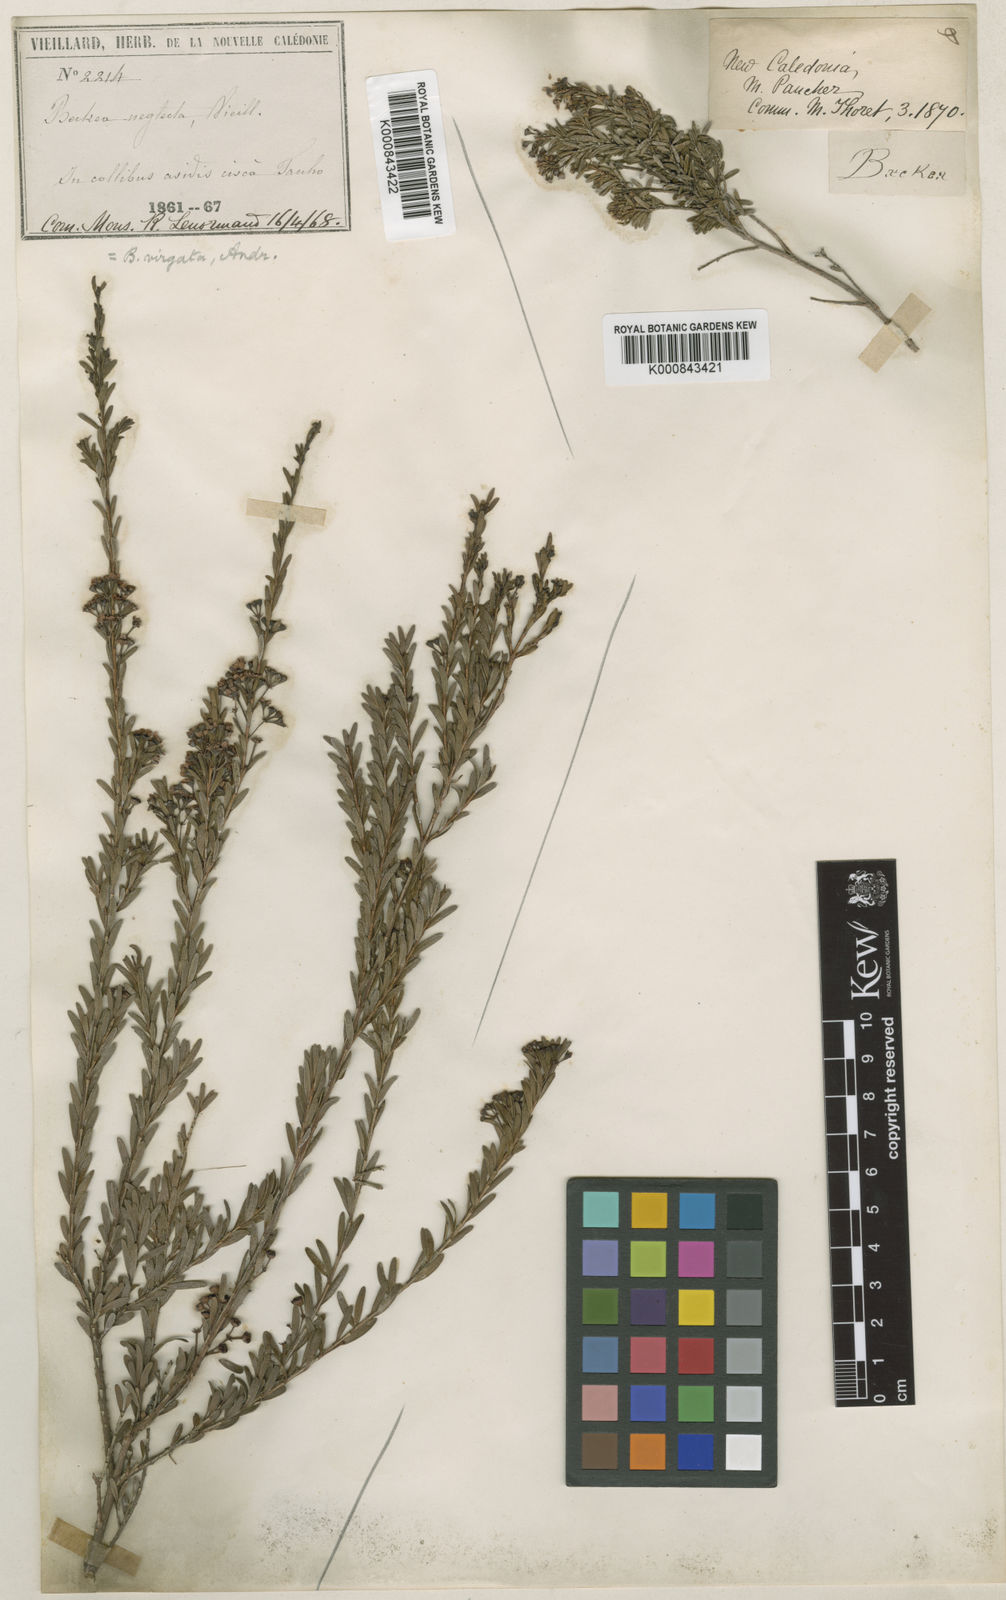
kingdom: Plantae
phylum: Tracheophyta
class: Magnoliopsida
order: Myrtales
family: Myrtaceae
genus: Sannantha
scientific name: Sannantha virgata
